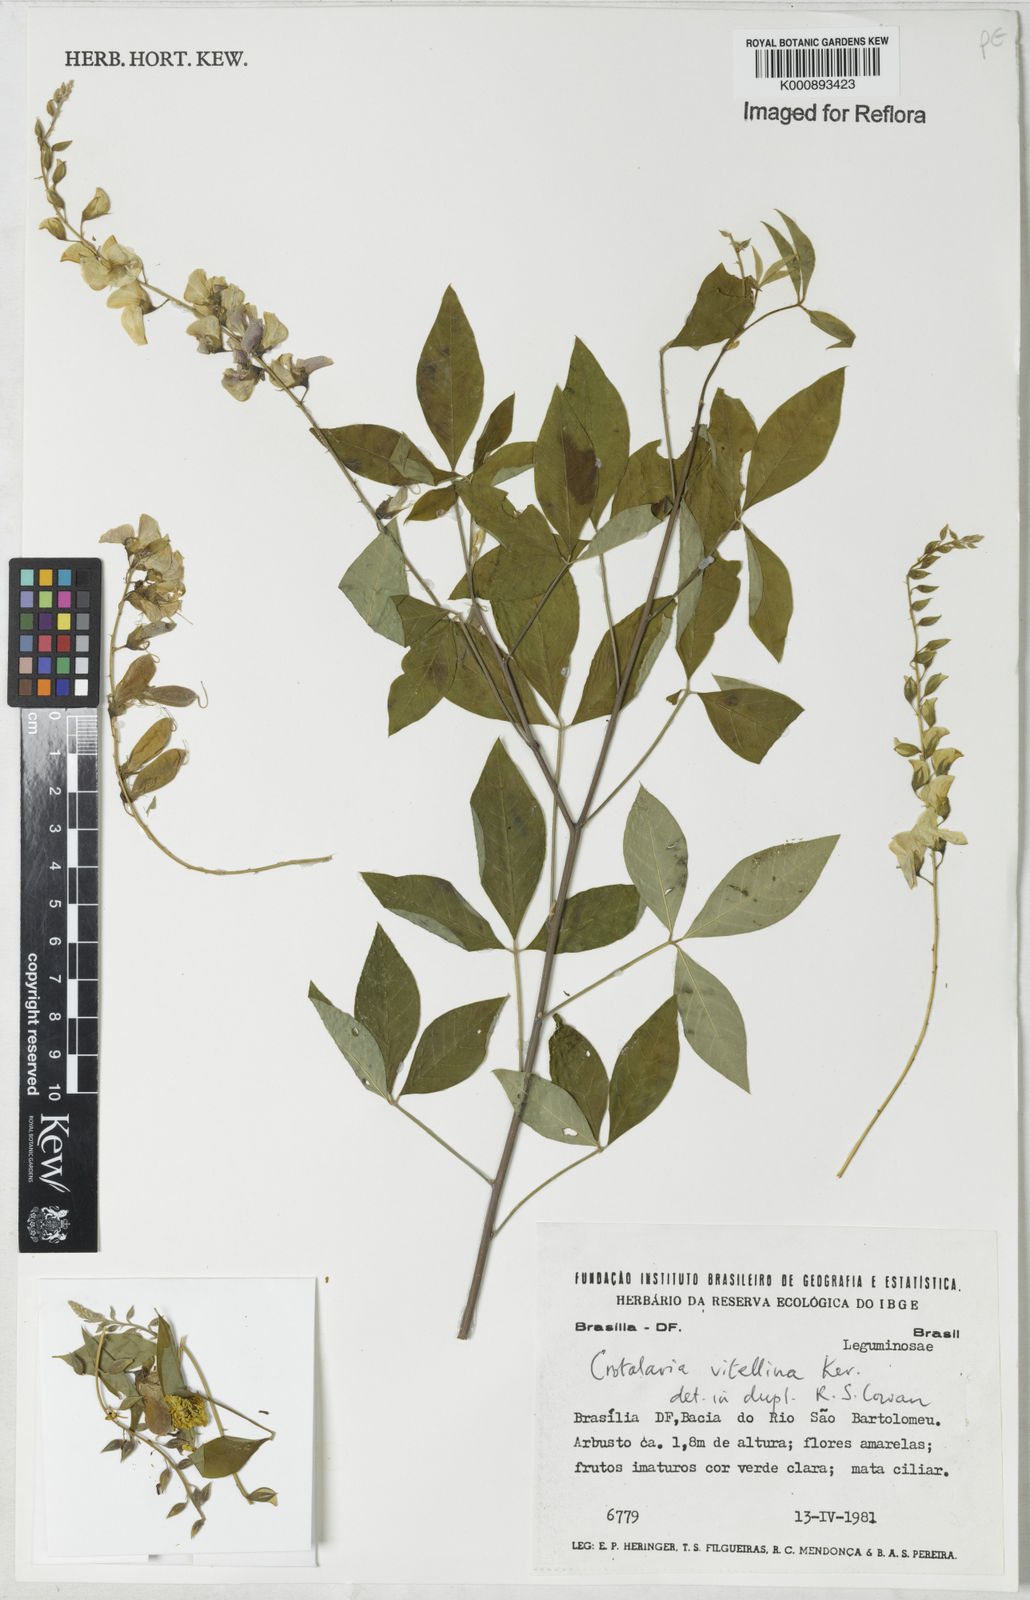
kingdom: Plantae
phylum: Tracheophyta
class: Magnoliopsida
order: Fabales
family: Fabaceae
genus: Crotalaria
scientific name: Crotalaria vitellina
